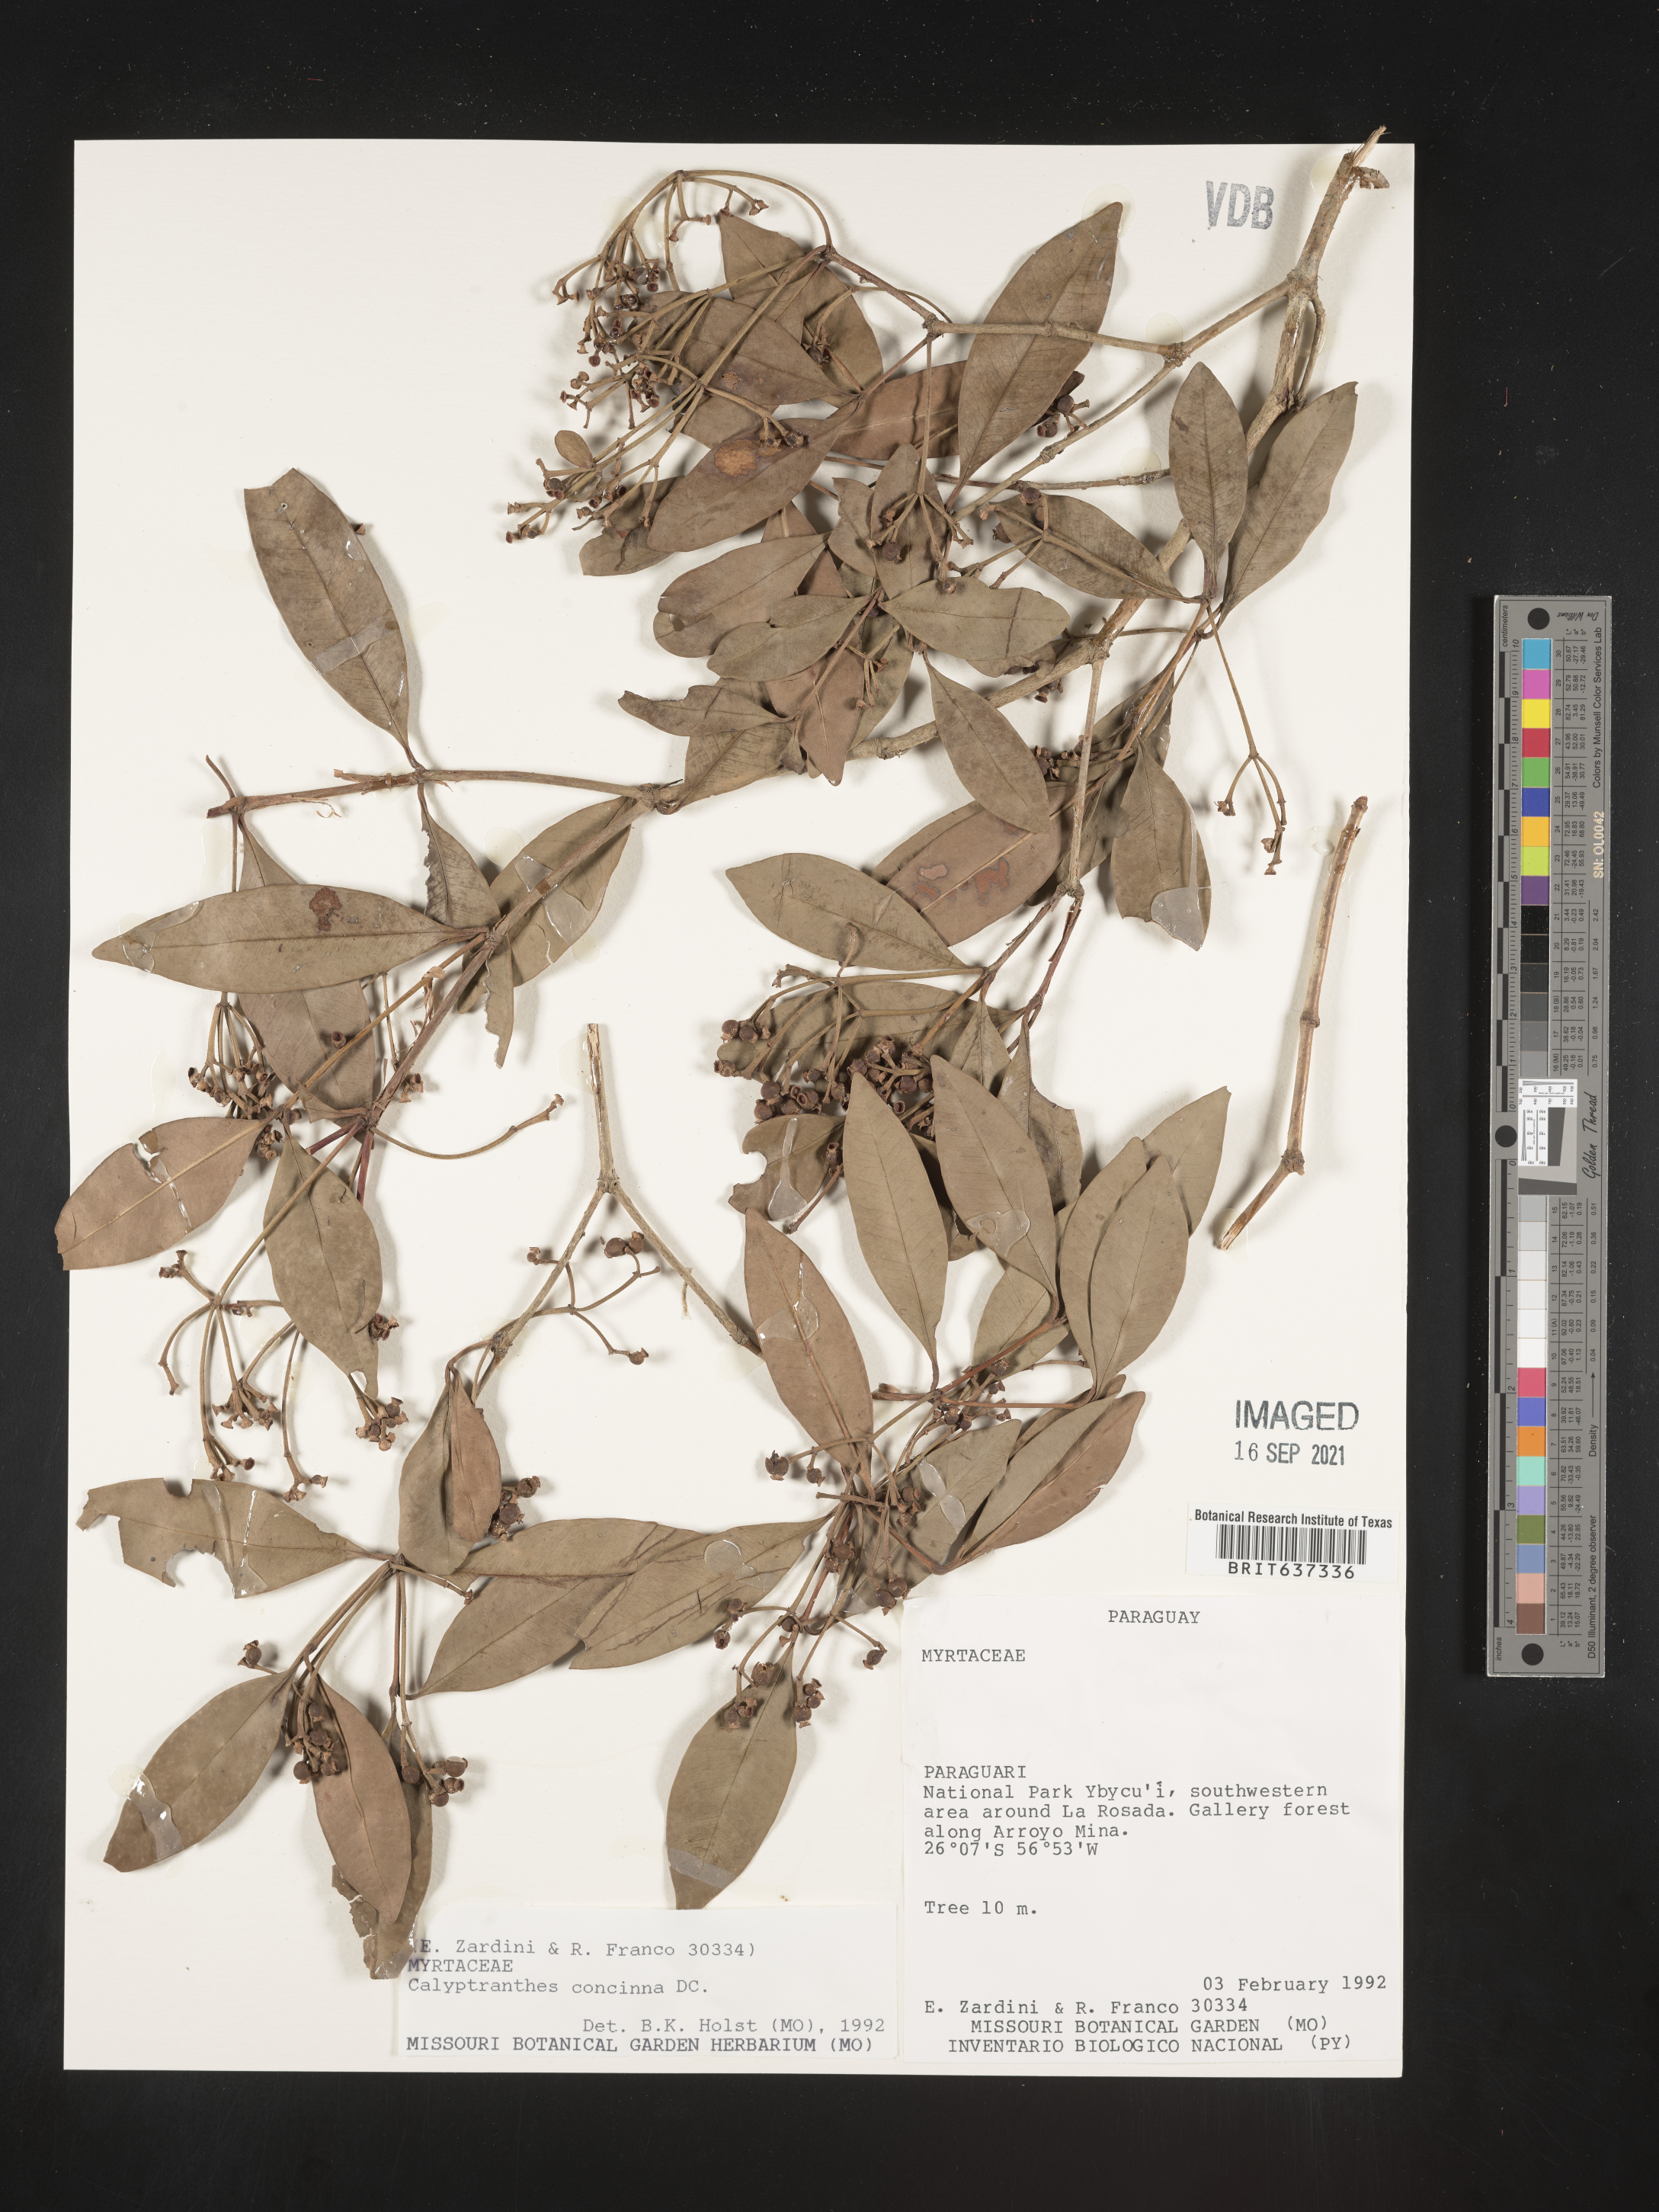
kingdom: Plantae
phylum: Tracheophyta
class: Magnoliopsida
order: Myrtales
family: Myrtaceae
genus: Calyptranthes
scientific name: Calyptranthes
